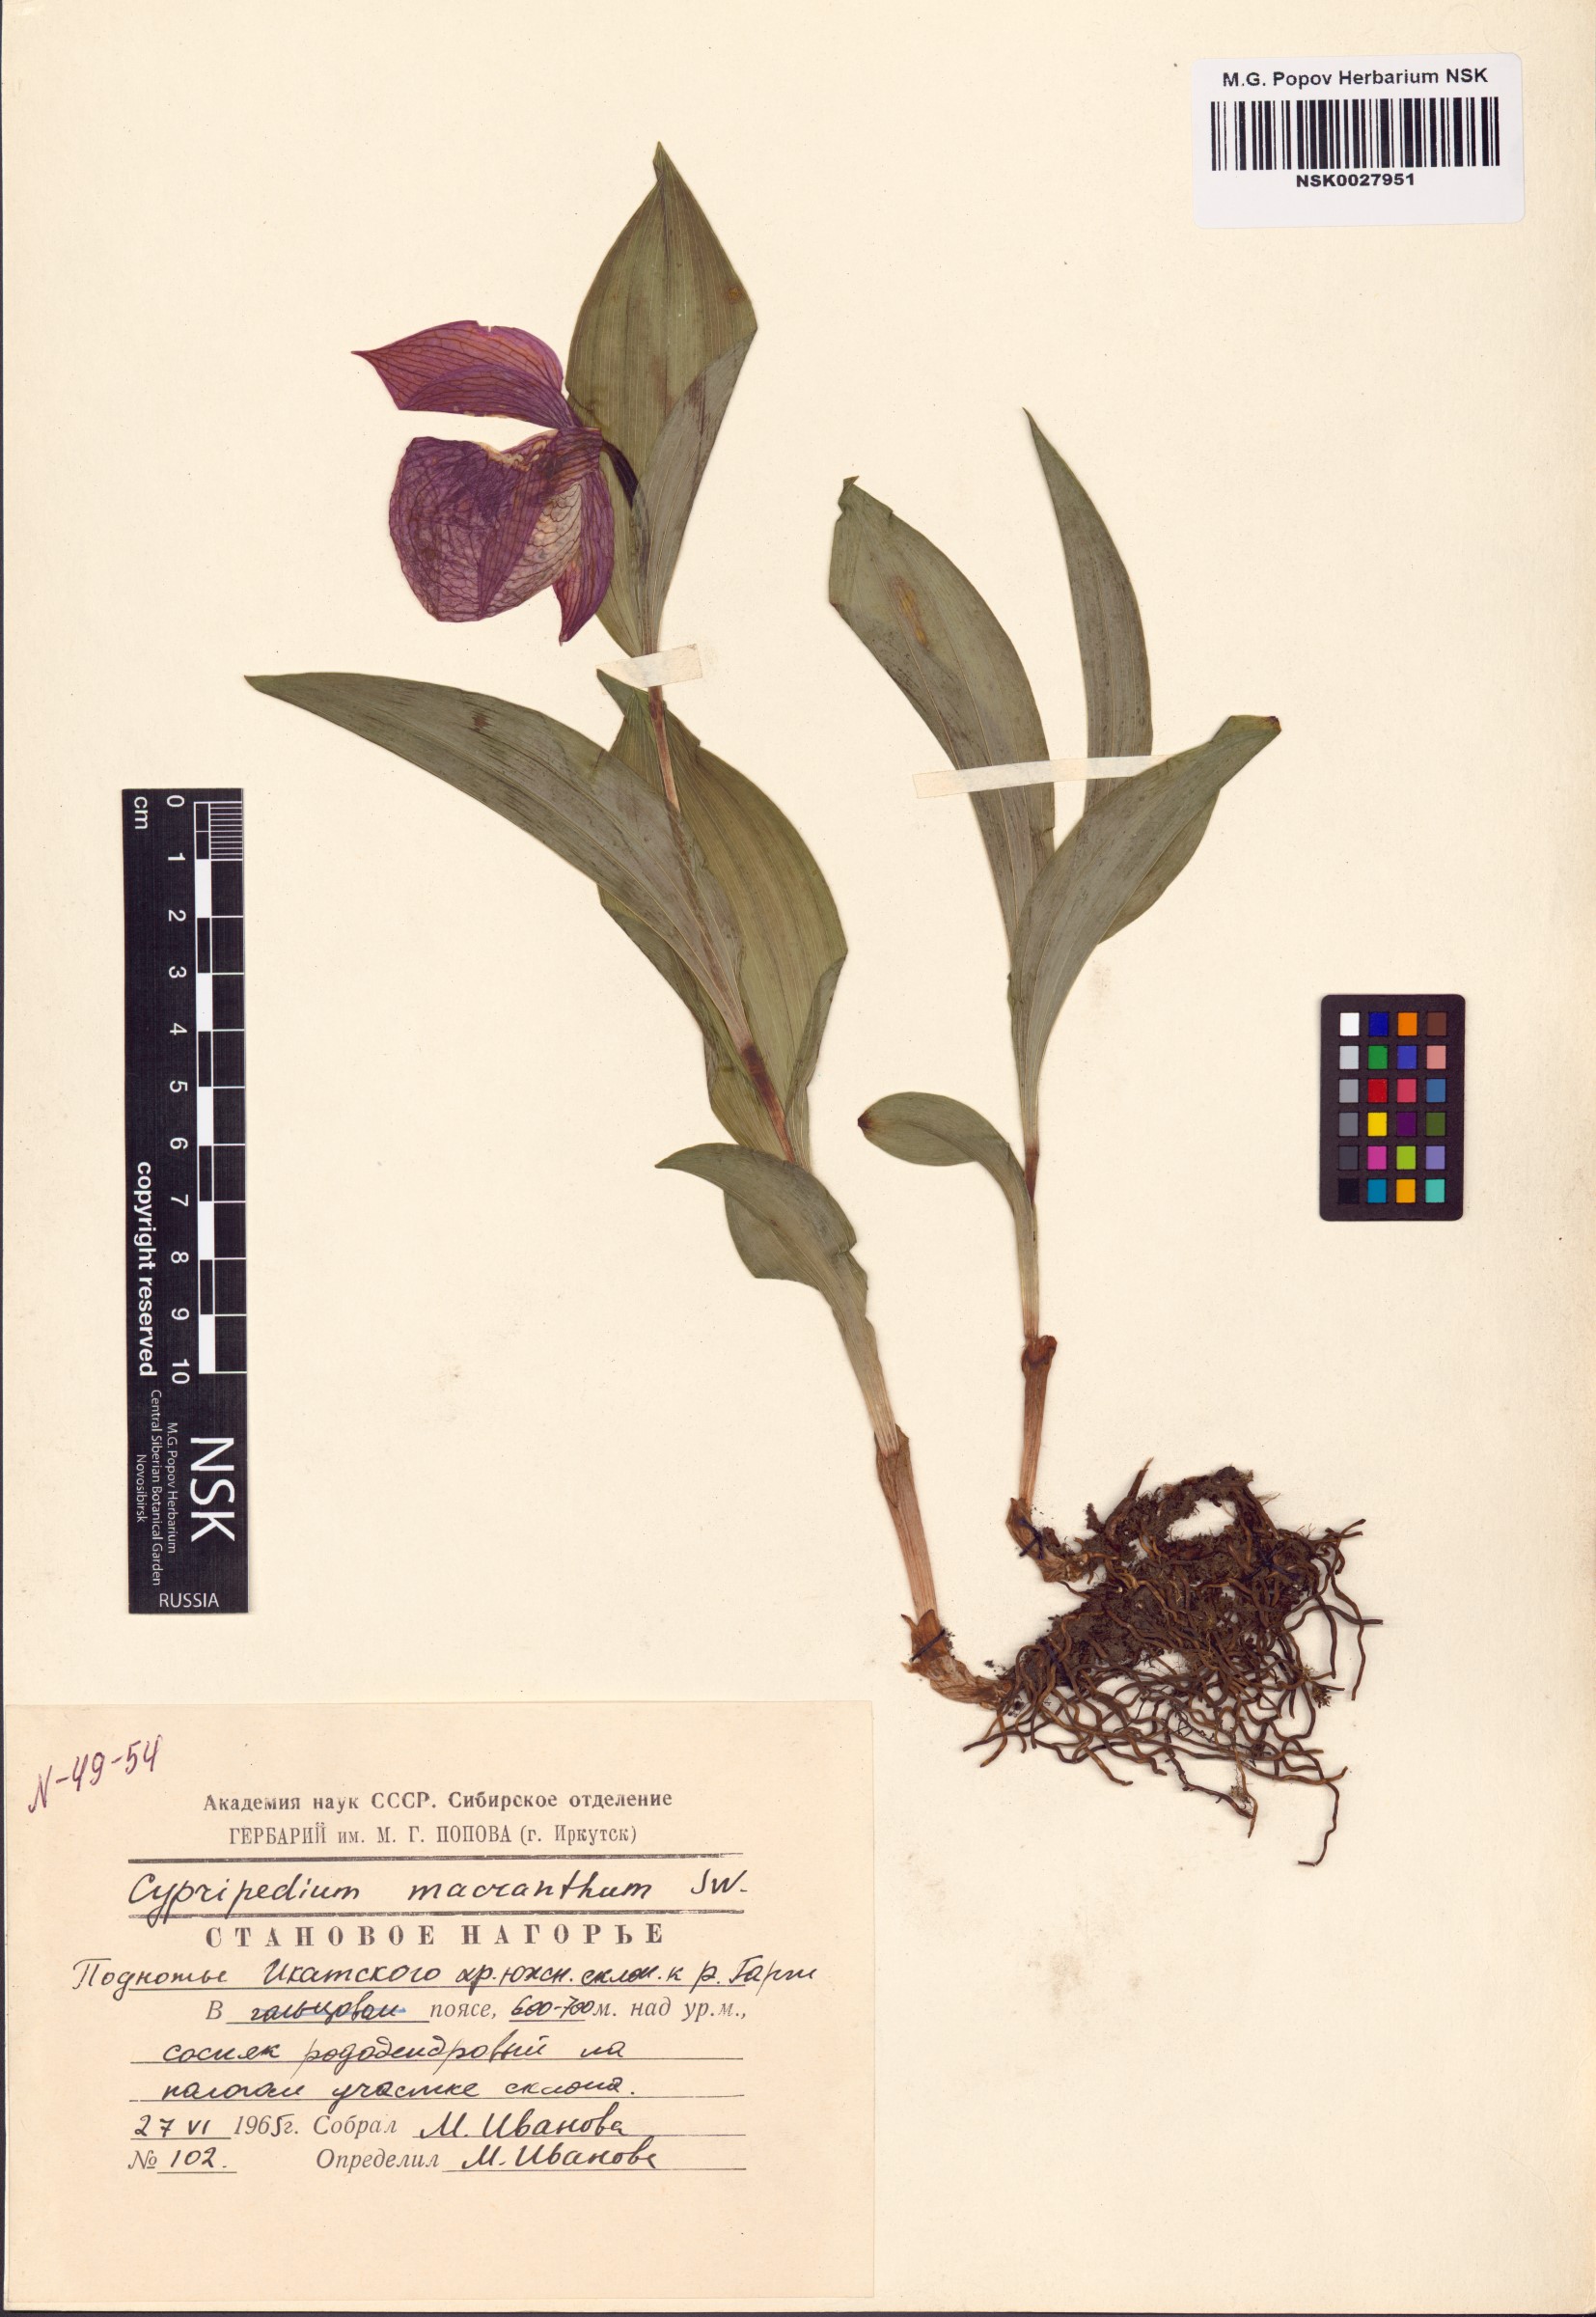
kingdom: Plantae
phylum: Tracheophyta
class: Liliopsida
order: Asparagales
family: Orchidaceae
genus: Cypripedium
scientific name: Cypripedium macranthos
